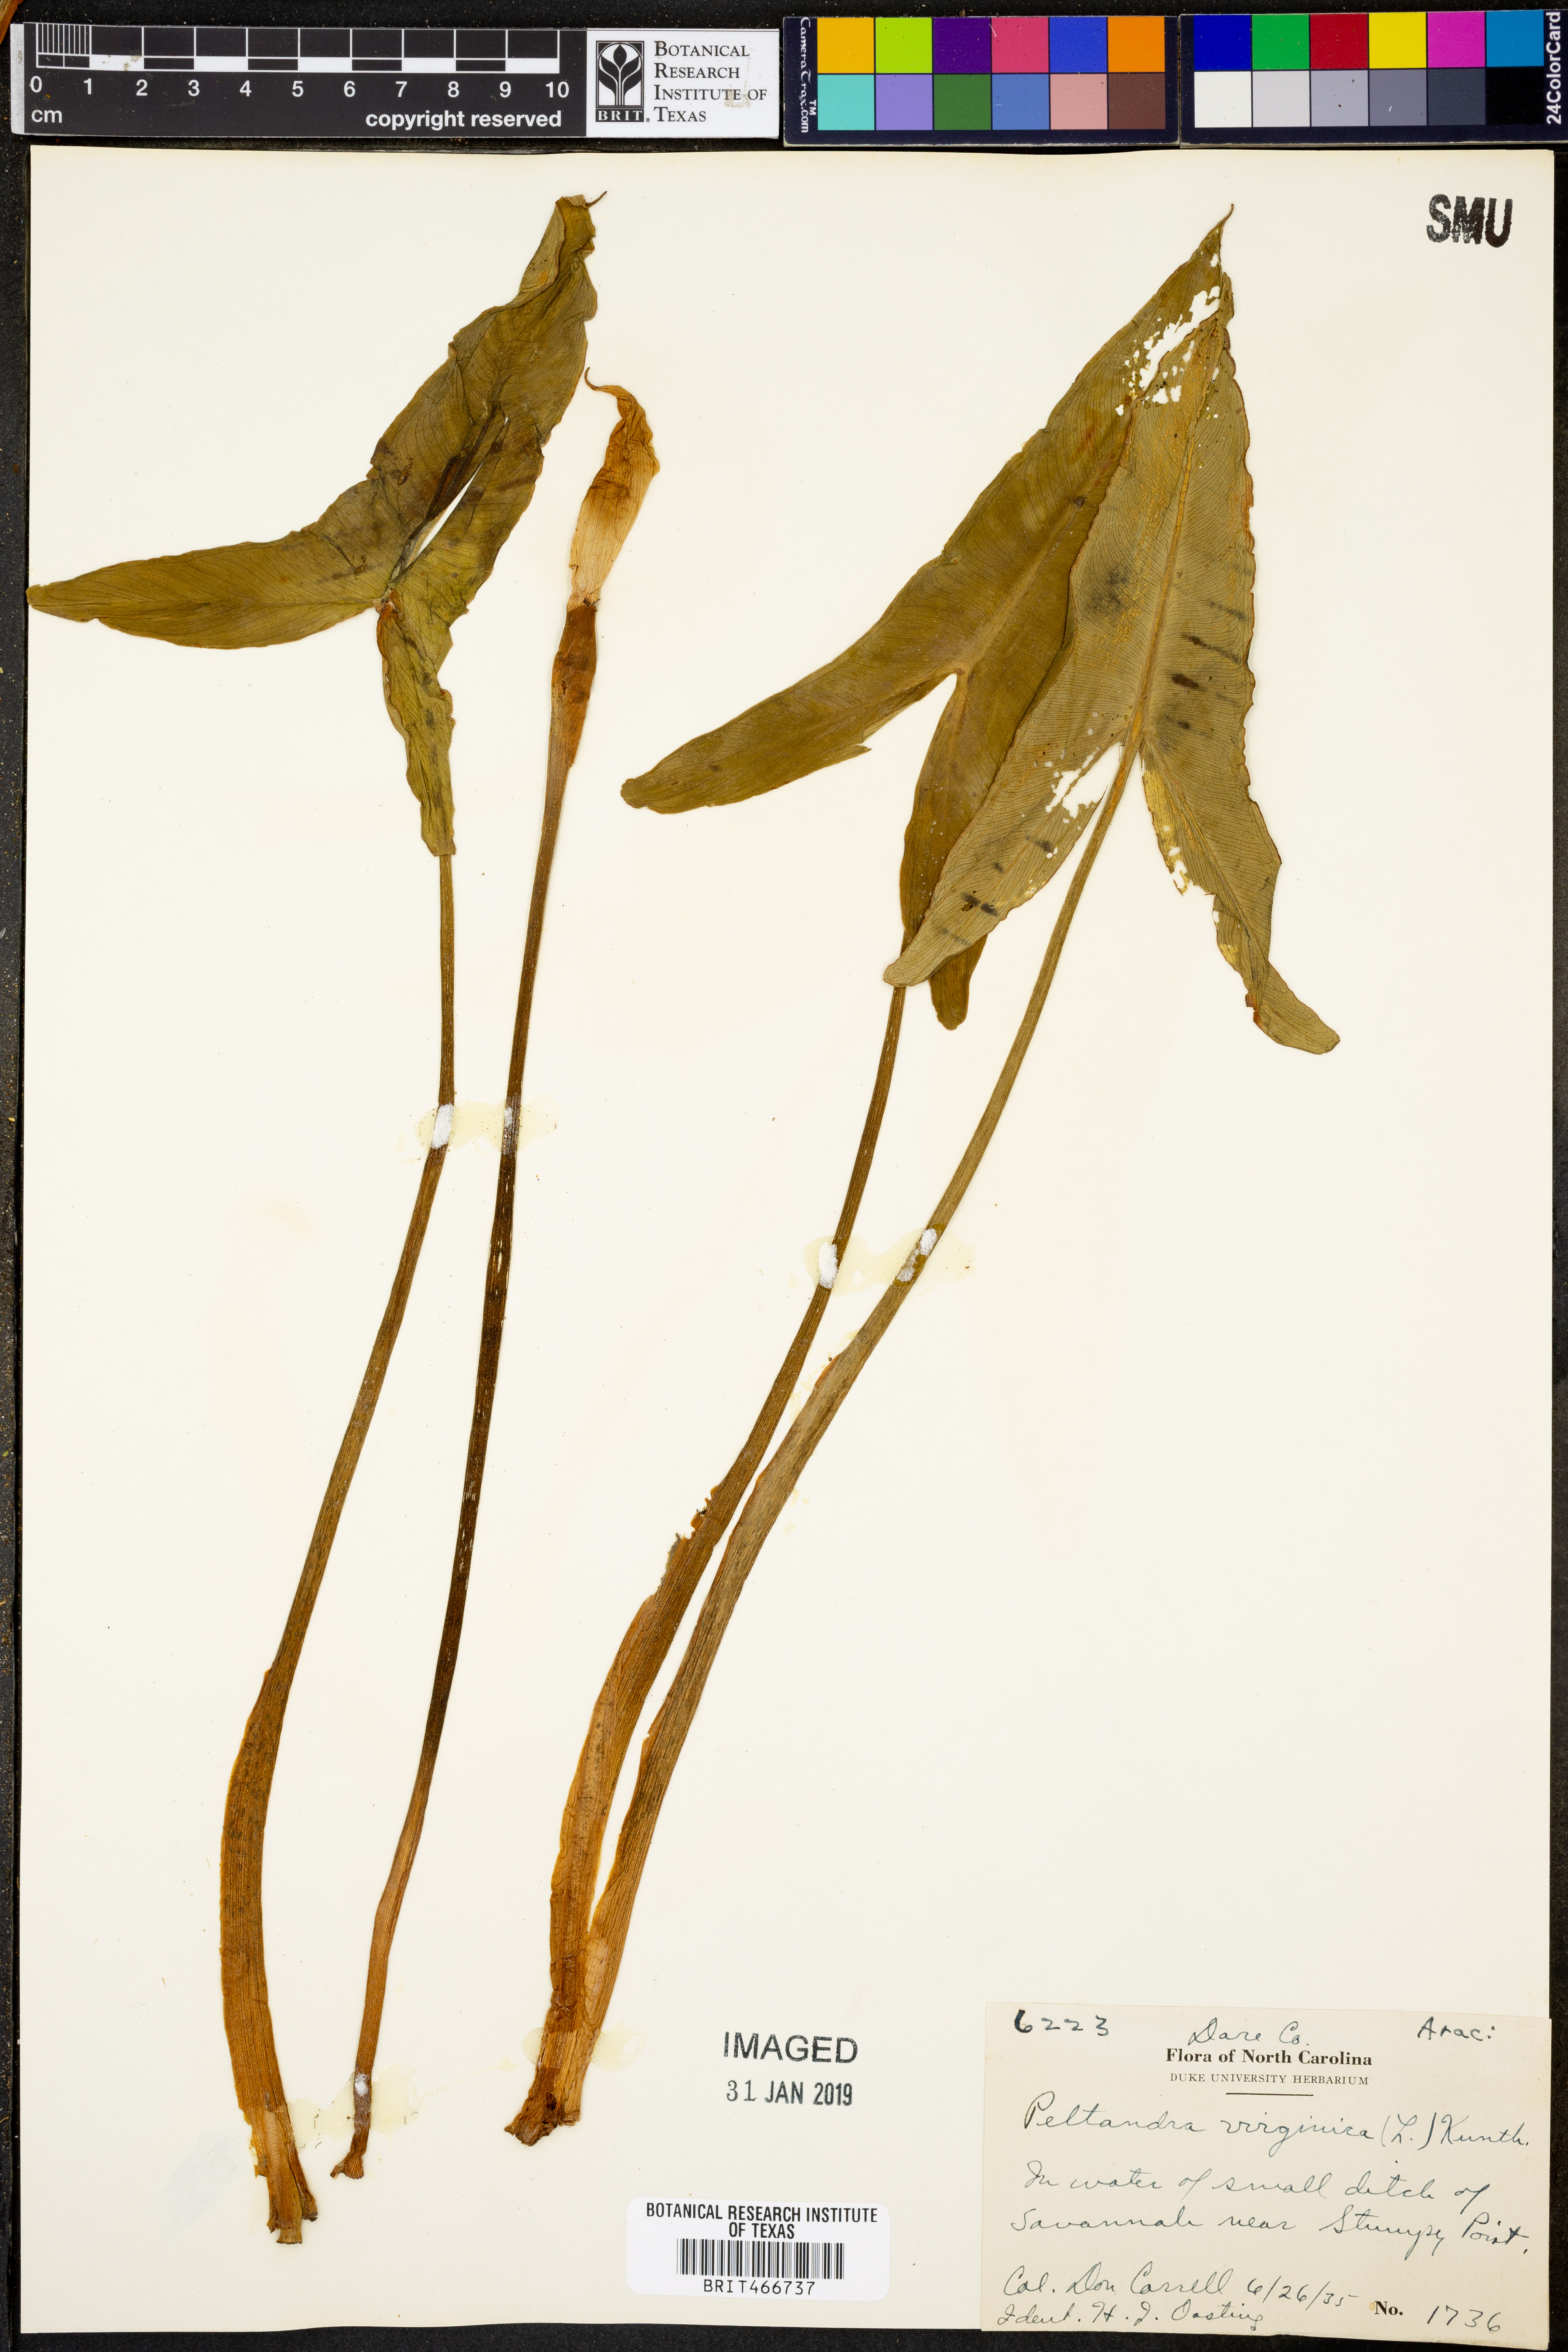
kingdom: Plantae
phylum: Tracheophyta
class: Liliopsida
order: Alismatales
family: Araceae
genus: Peltandra
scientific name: Peltandra virginica
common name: Arrow arum
